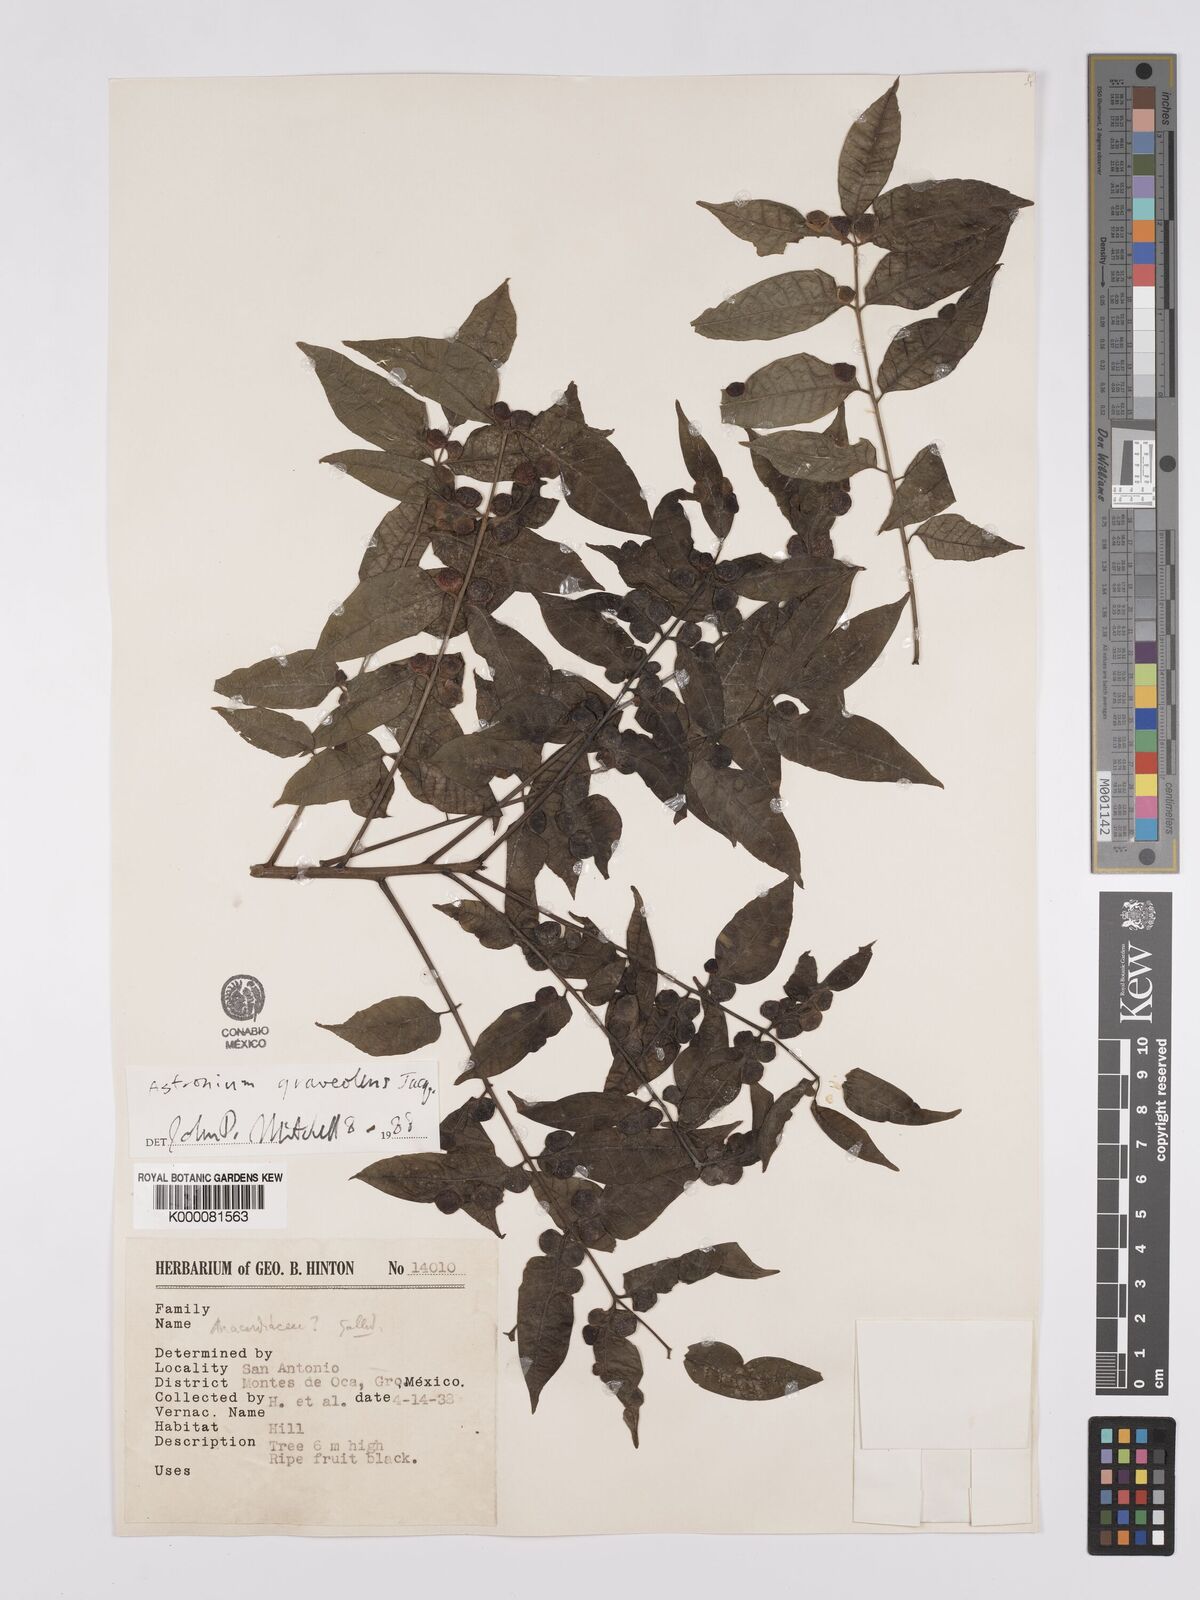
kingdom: Plantae
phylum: Tracheophyta
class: Magnoliopsida
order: Sapindales
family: Anacardiaceae
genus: Astronium
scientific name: Astronium graveolens
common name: Glassywood
